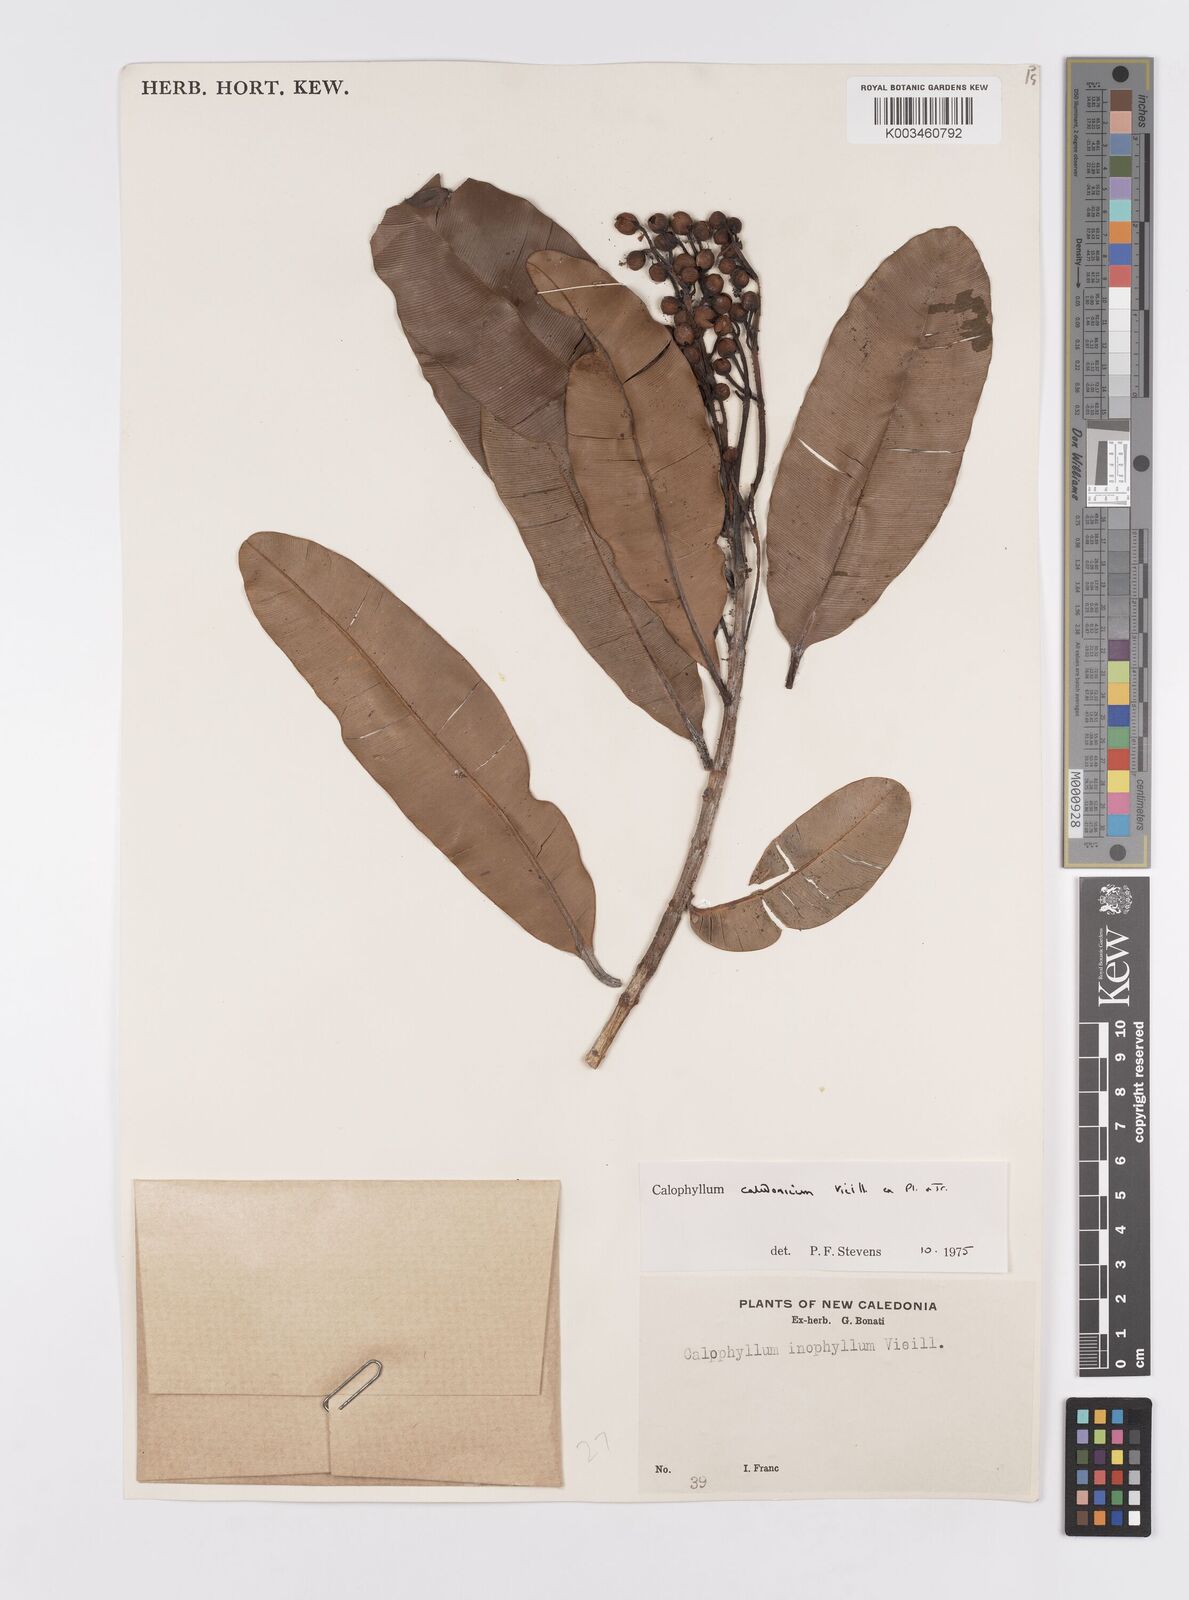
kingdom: Plantae
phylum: Tracheophyta
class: Magnoliopsida
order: Malpighiales
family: Calophyllaceae
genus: Calophyllum
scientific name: Calophyllum caledonicum
